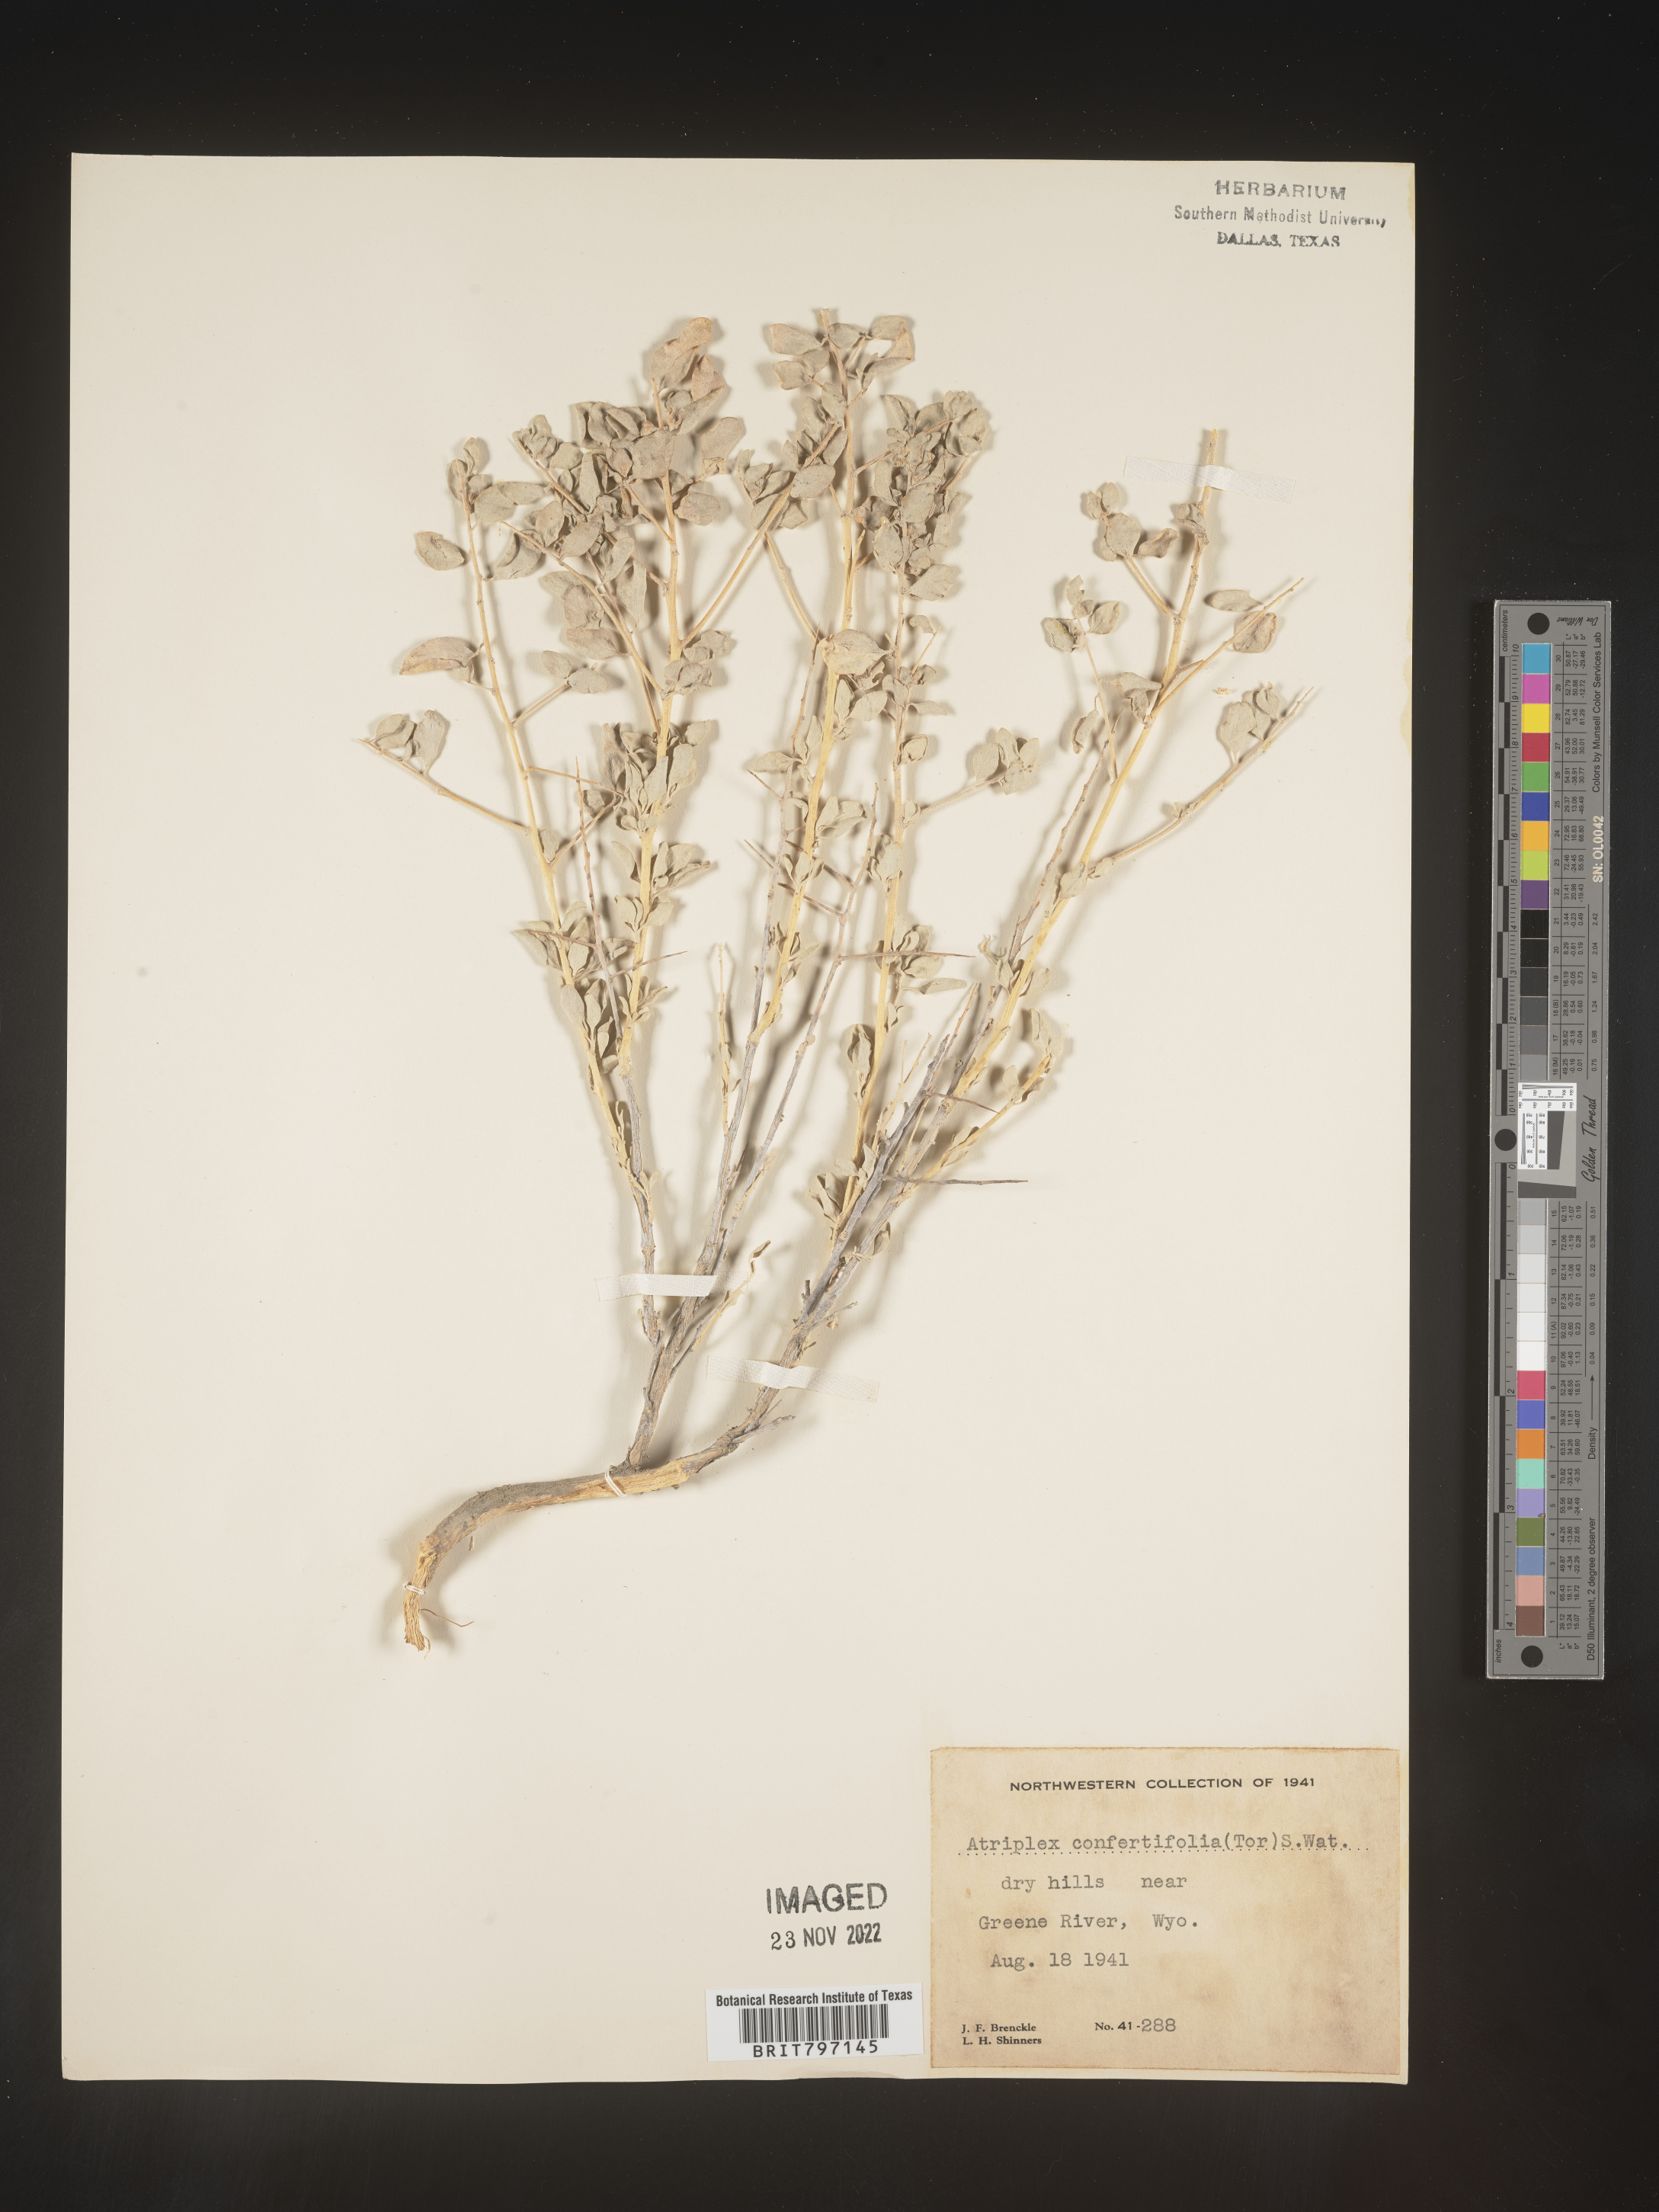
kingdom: Plantae
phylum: Tracheophyta
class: Magnoliopsida
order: Caryophyllales
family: Amaranthaceae
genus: Atriplex
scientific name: Atriplex confertifolia
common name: Shadscale
